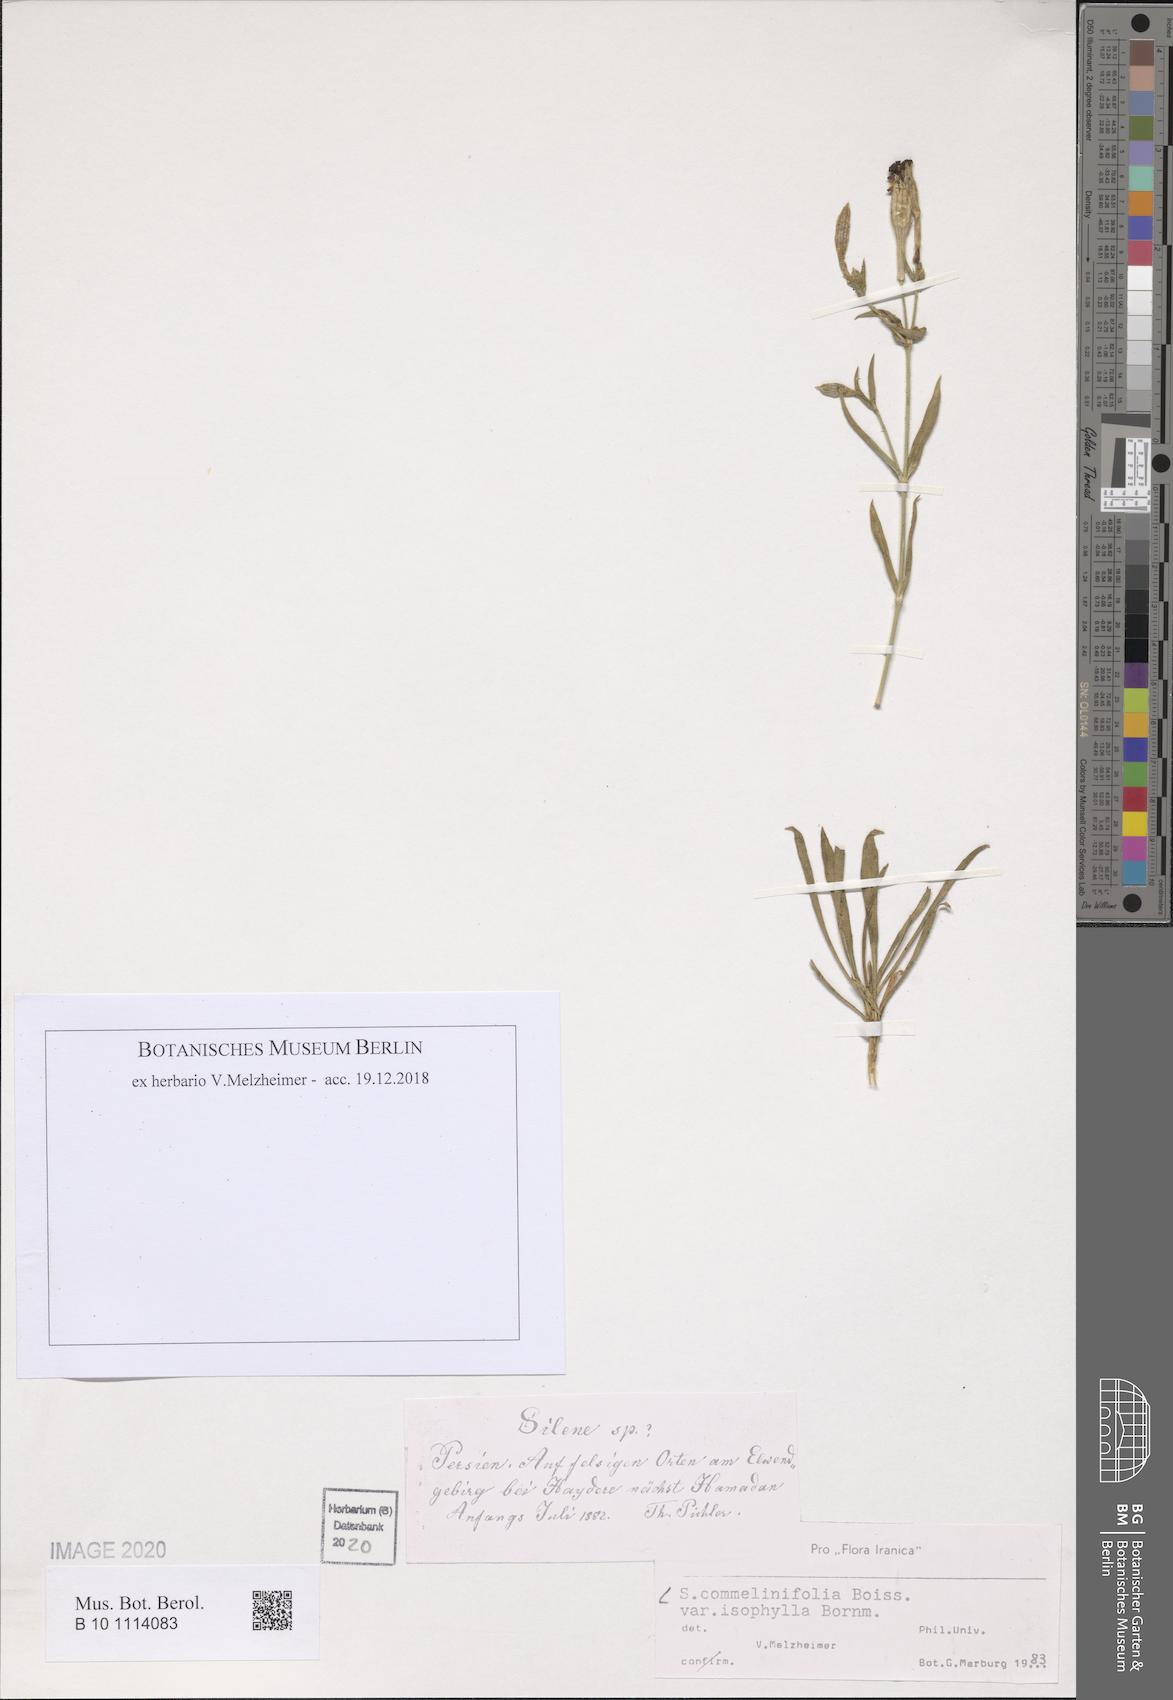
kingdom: Plantae
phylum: Tracheophyta
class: Magnoliopsida
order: Caryophyllales
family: Caryophyllaceae
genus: Silene
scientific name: Silene commelinifolia
